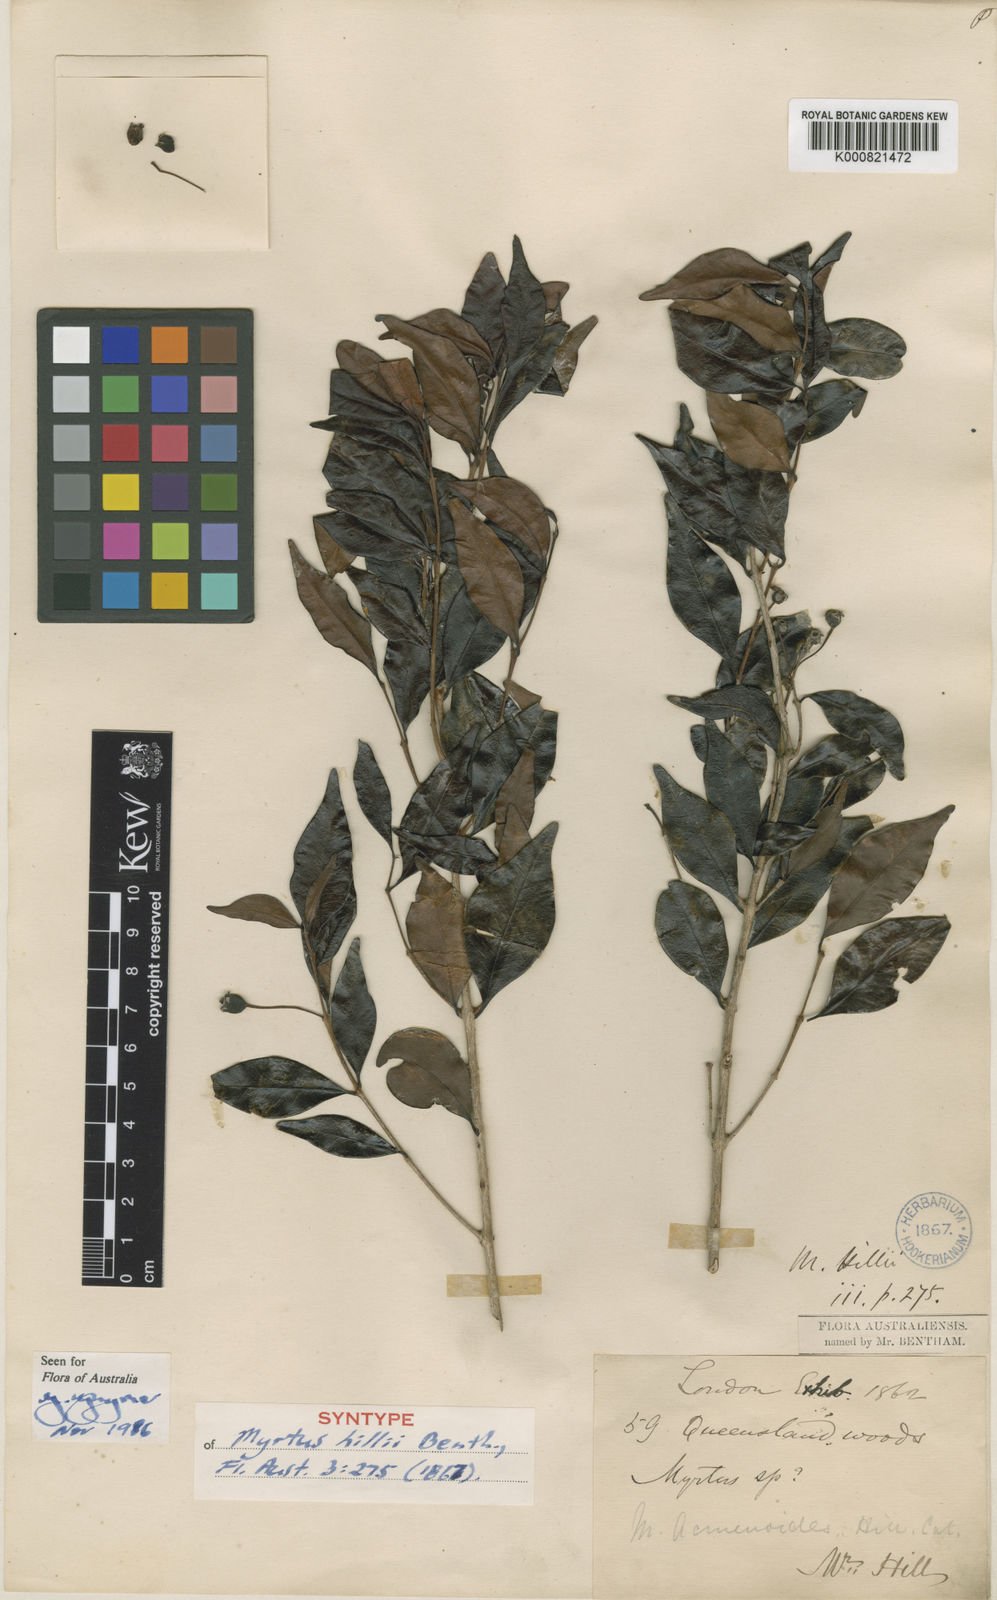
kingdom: Plantae
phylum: Tracheophyta
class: Magnoliopsida
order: Myrtales
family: Myrtaceae
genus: Gossia
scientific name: Gossia hillii
